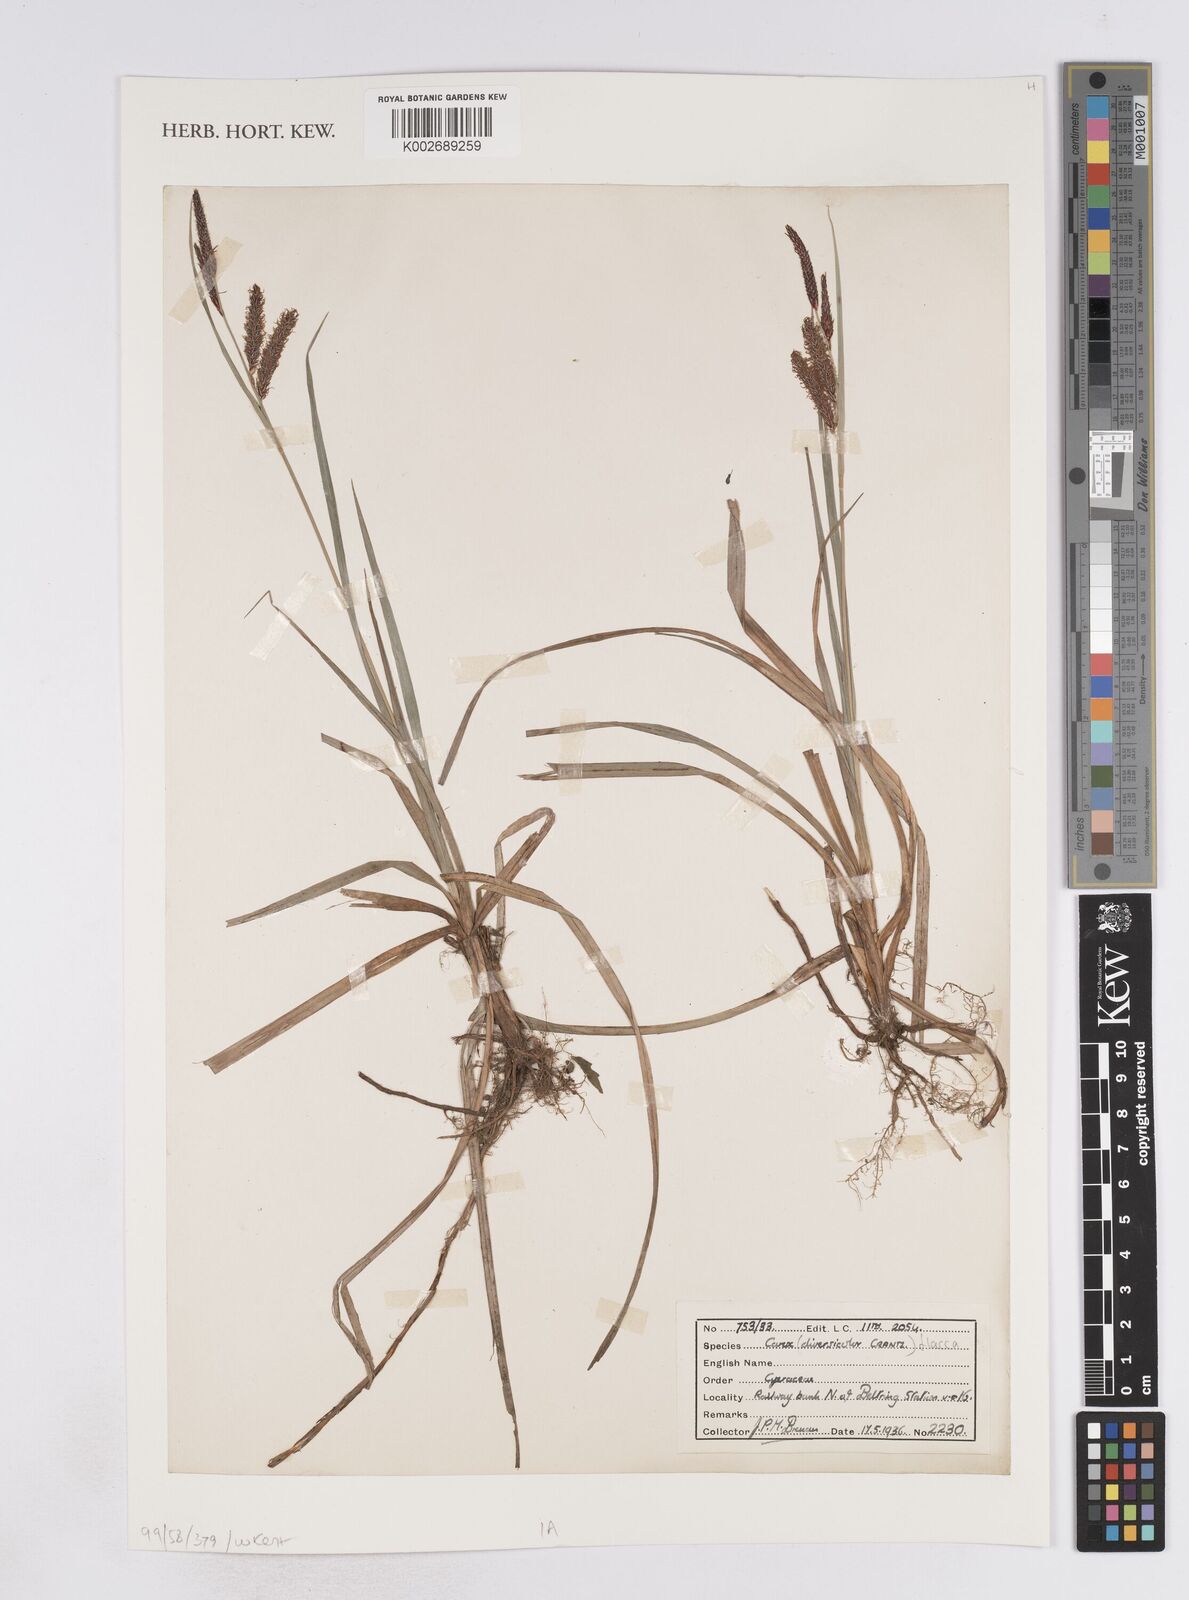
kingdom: Plantae
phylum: Tracheophyta
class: Liliopsida
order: Poales
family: Cyperaceae
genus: Carex
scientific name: Carex flacca
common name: Glaucous sedge
